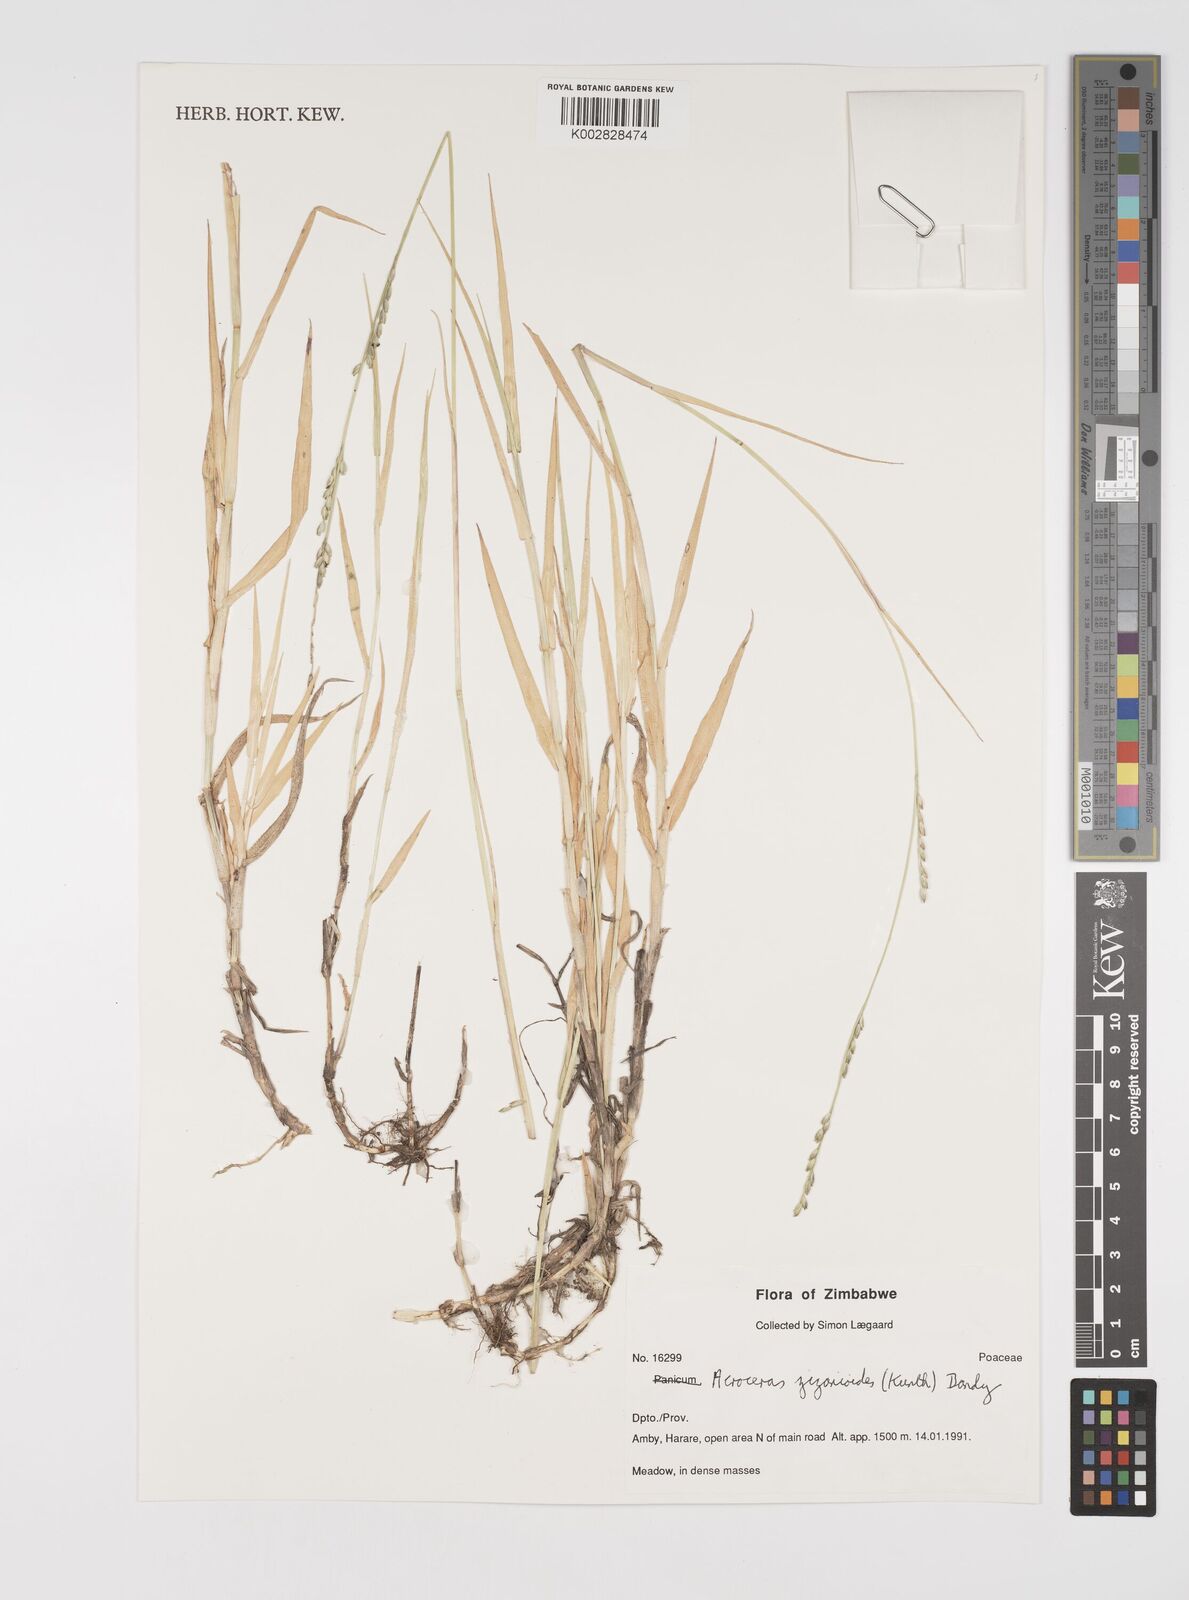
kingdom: Plantae
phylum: Tracheophyta
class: Liliopsida
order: Poales
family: Poaceae
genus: Acroceras
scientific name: Acroceras zizanioides
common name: Oat grass
